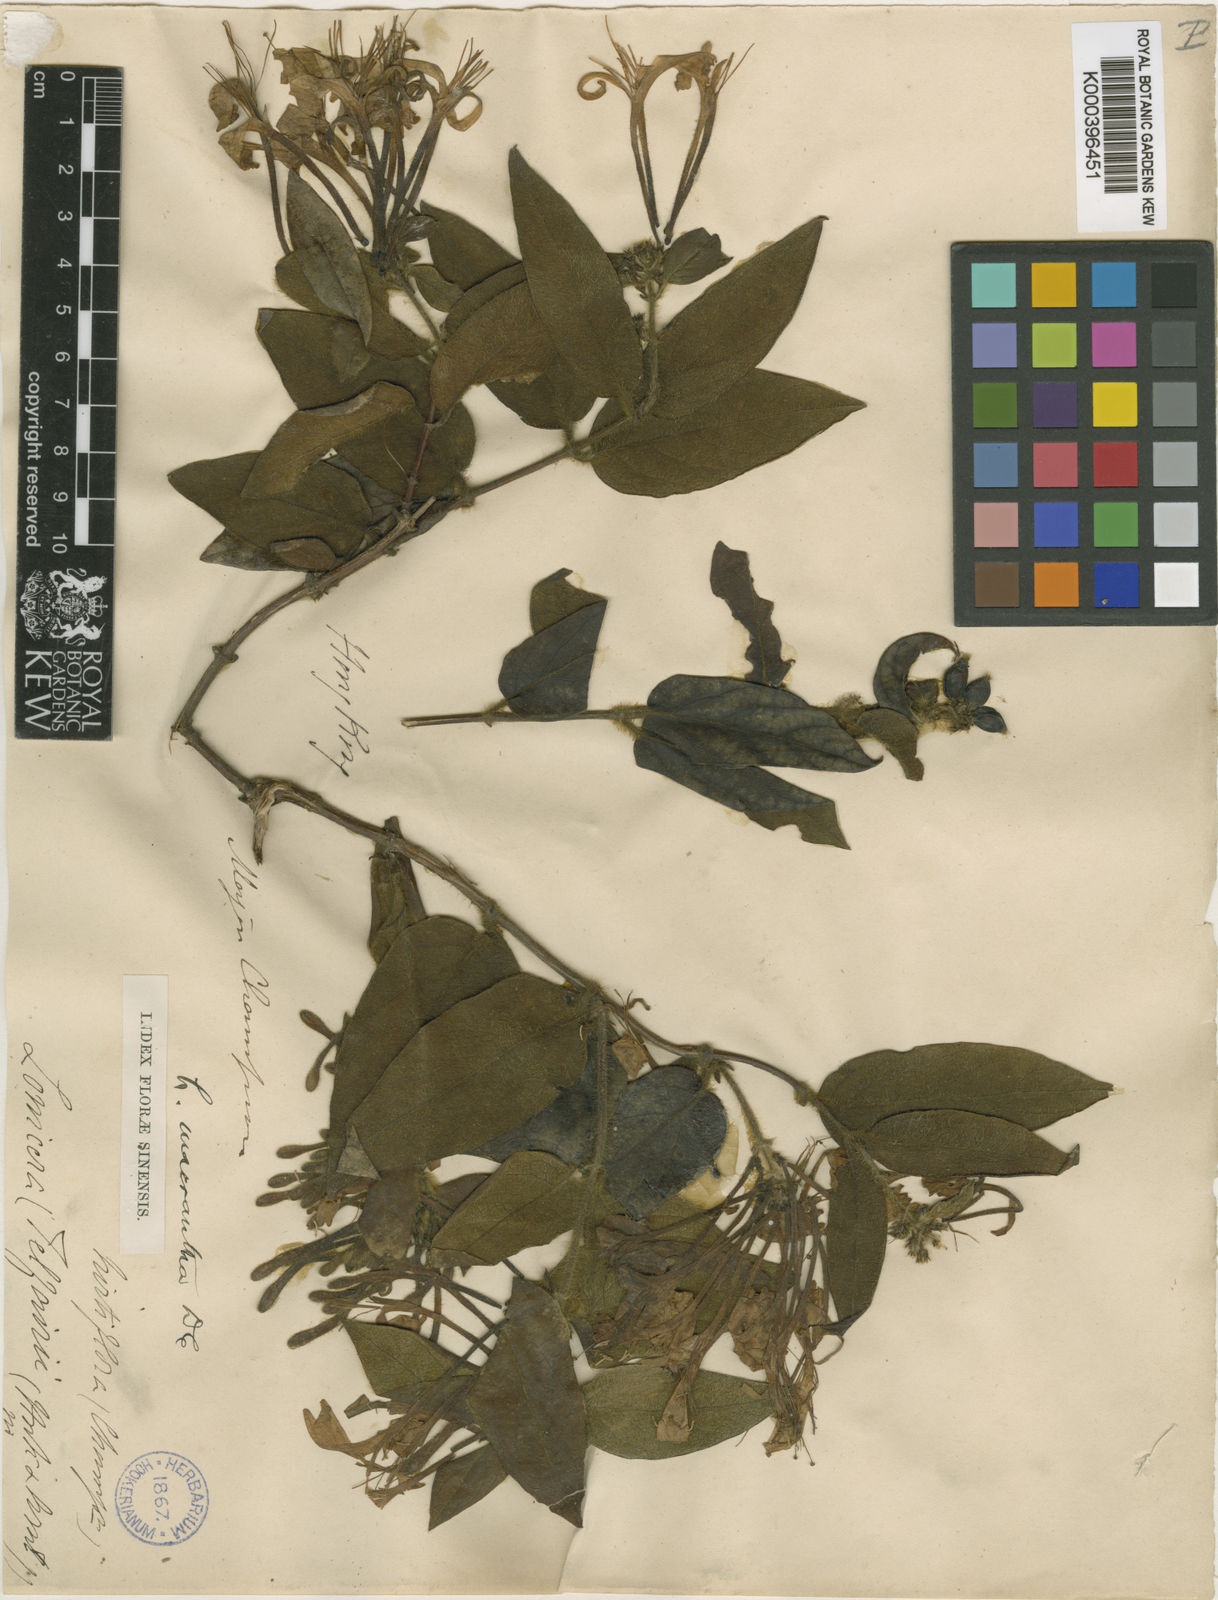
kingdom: Plantae
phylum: Tracheophyta
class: Magnoliopsida
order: Dipsacales
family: Caprifoliaceae
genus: Lonicera
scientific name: Lonicera macrantha
